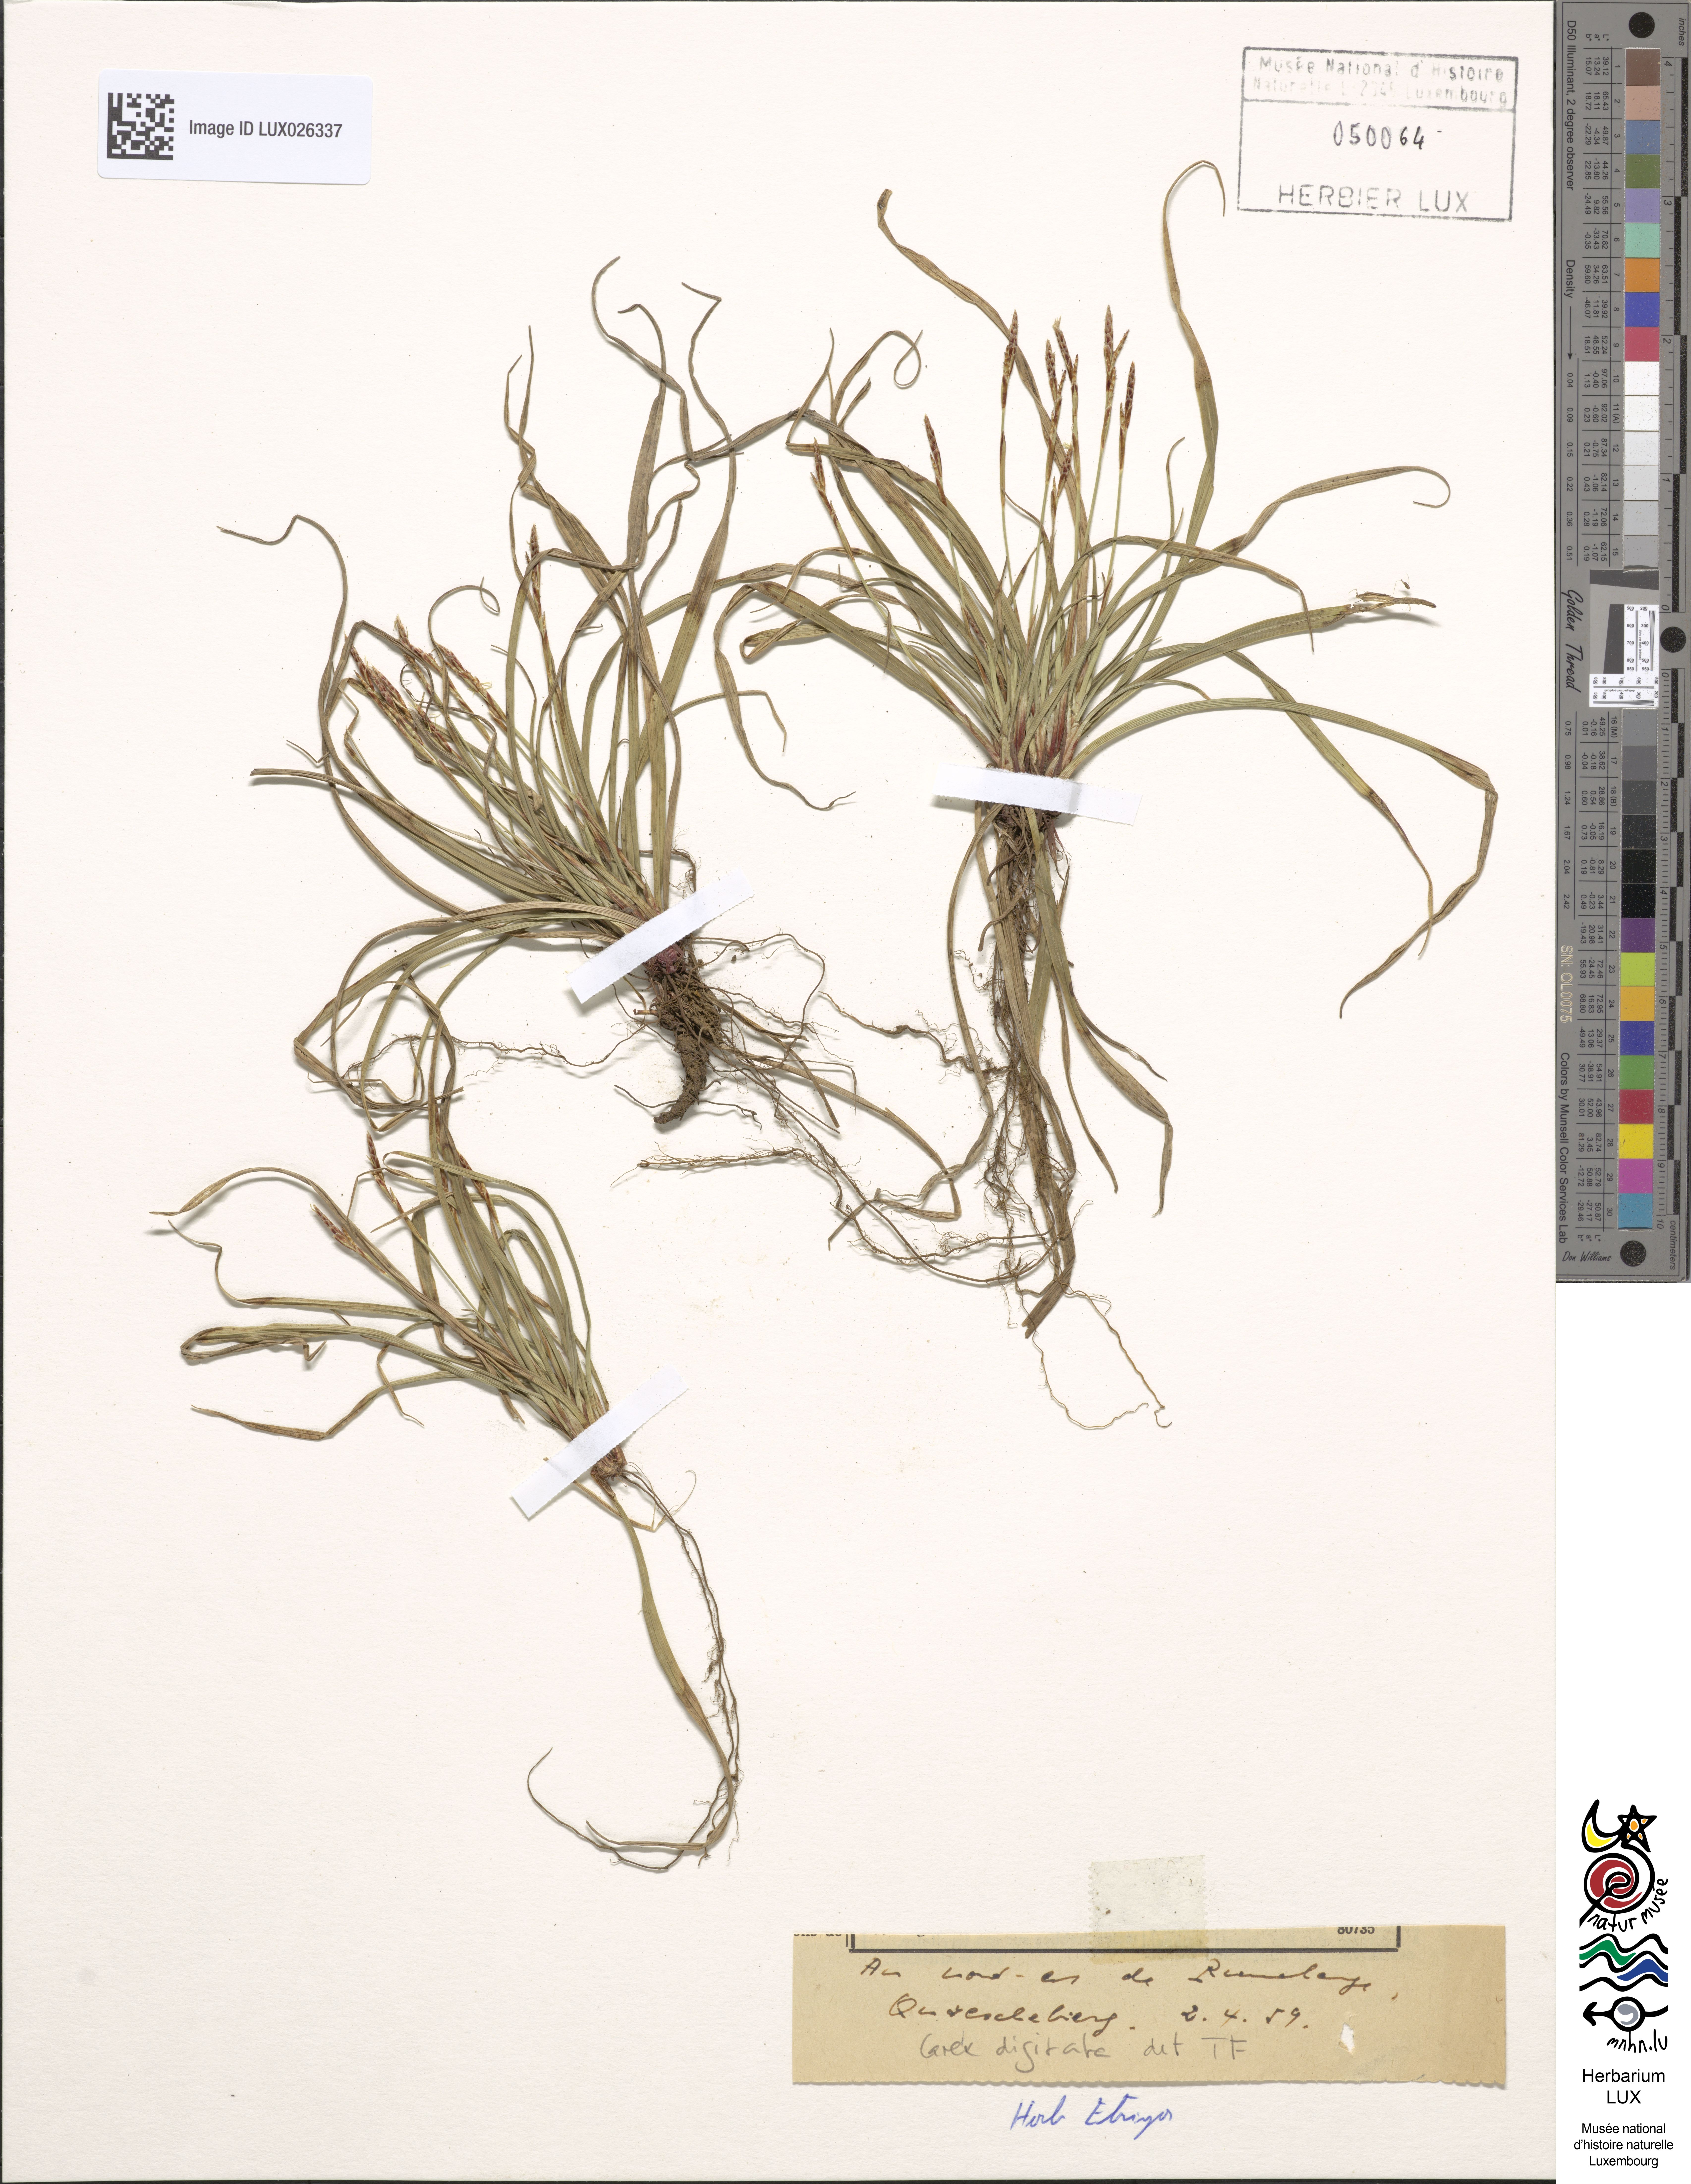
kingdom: Plantae
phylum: Tracheophyta
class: Liliopsida
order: Poales
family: Cyperaceae
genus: Carex
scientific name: Carex digitata
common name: Fingered sedge
